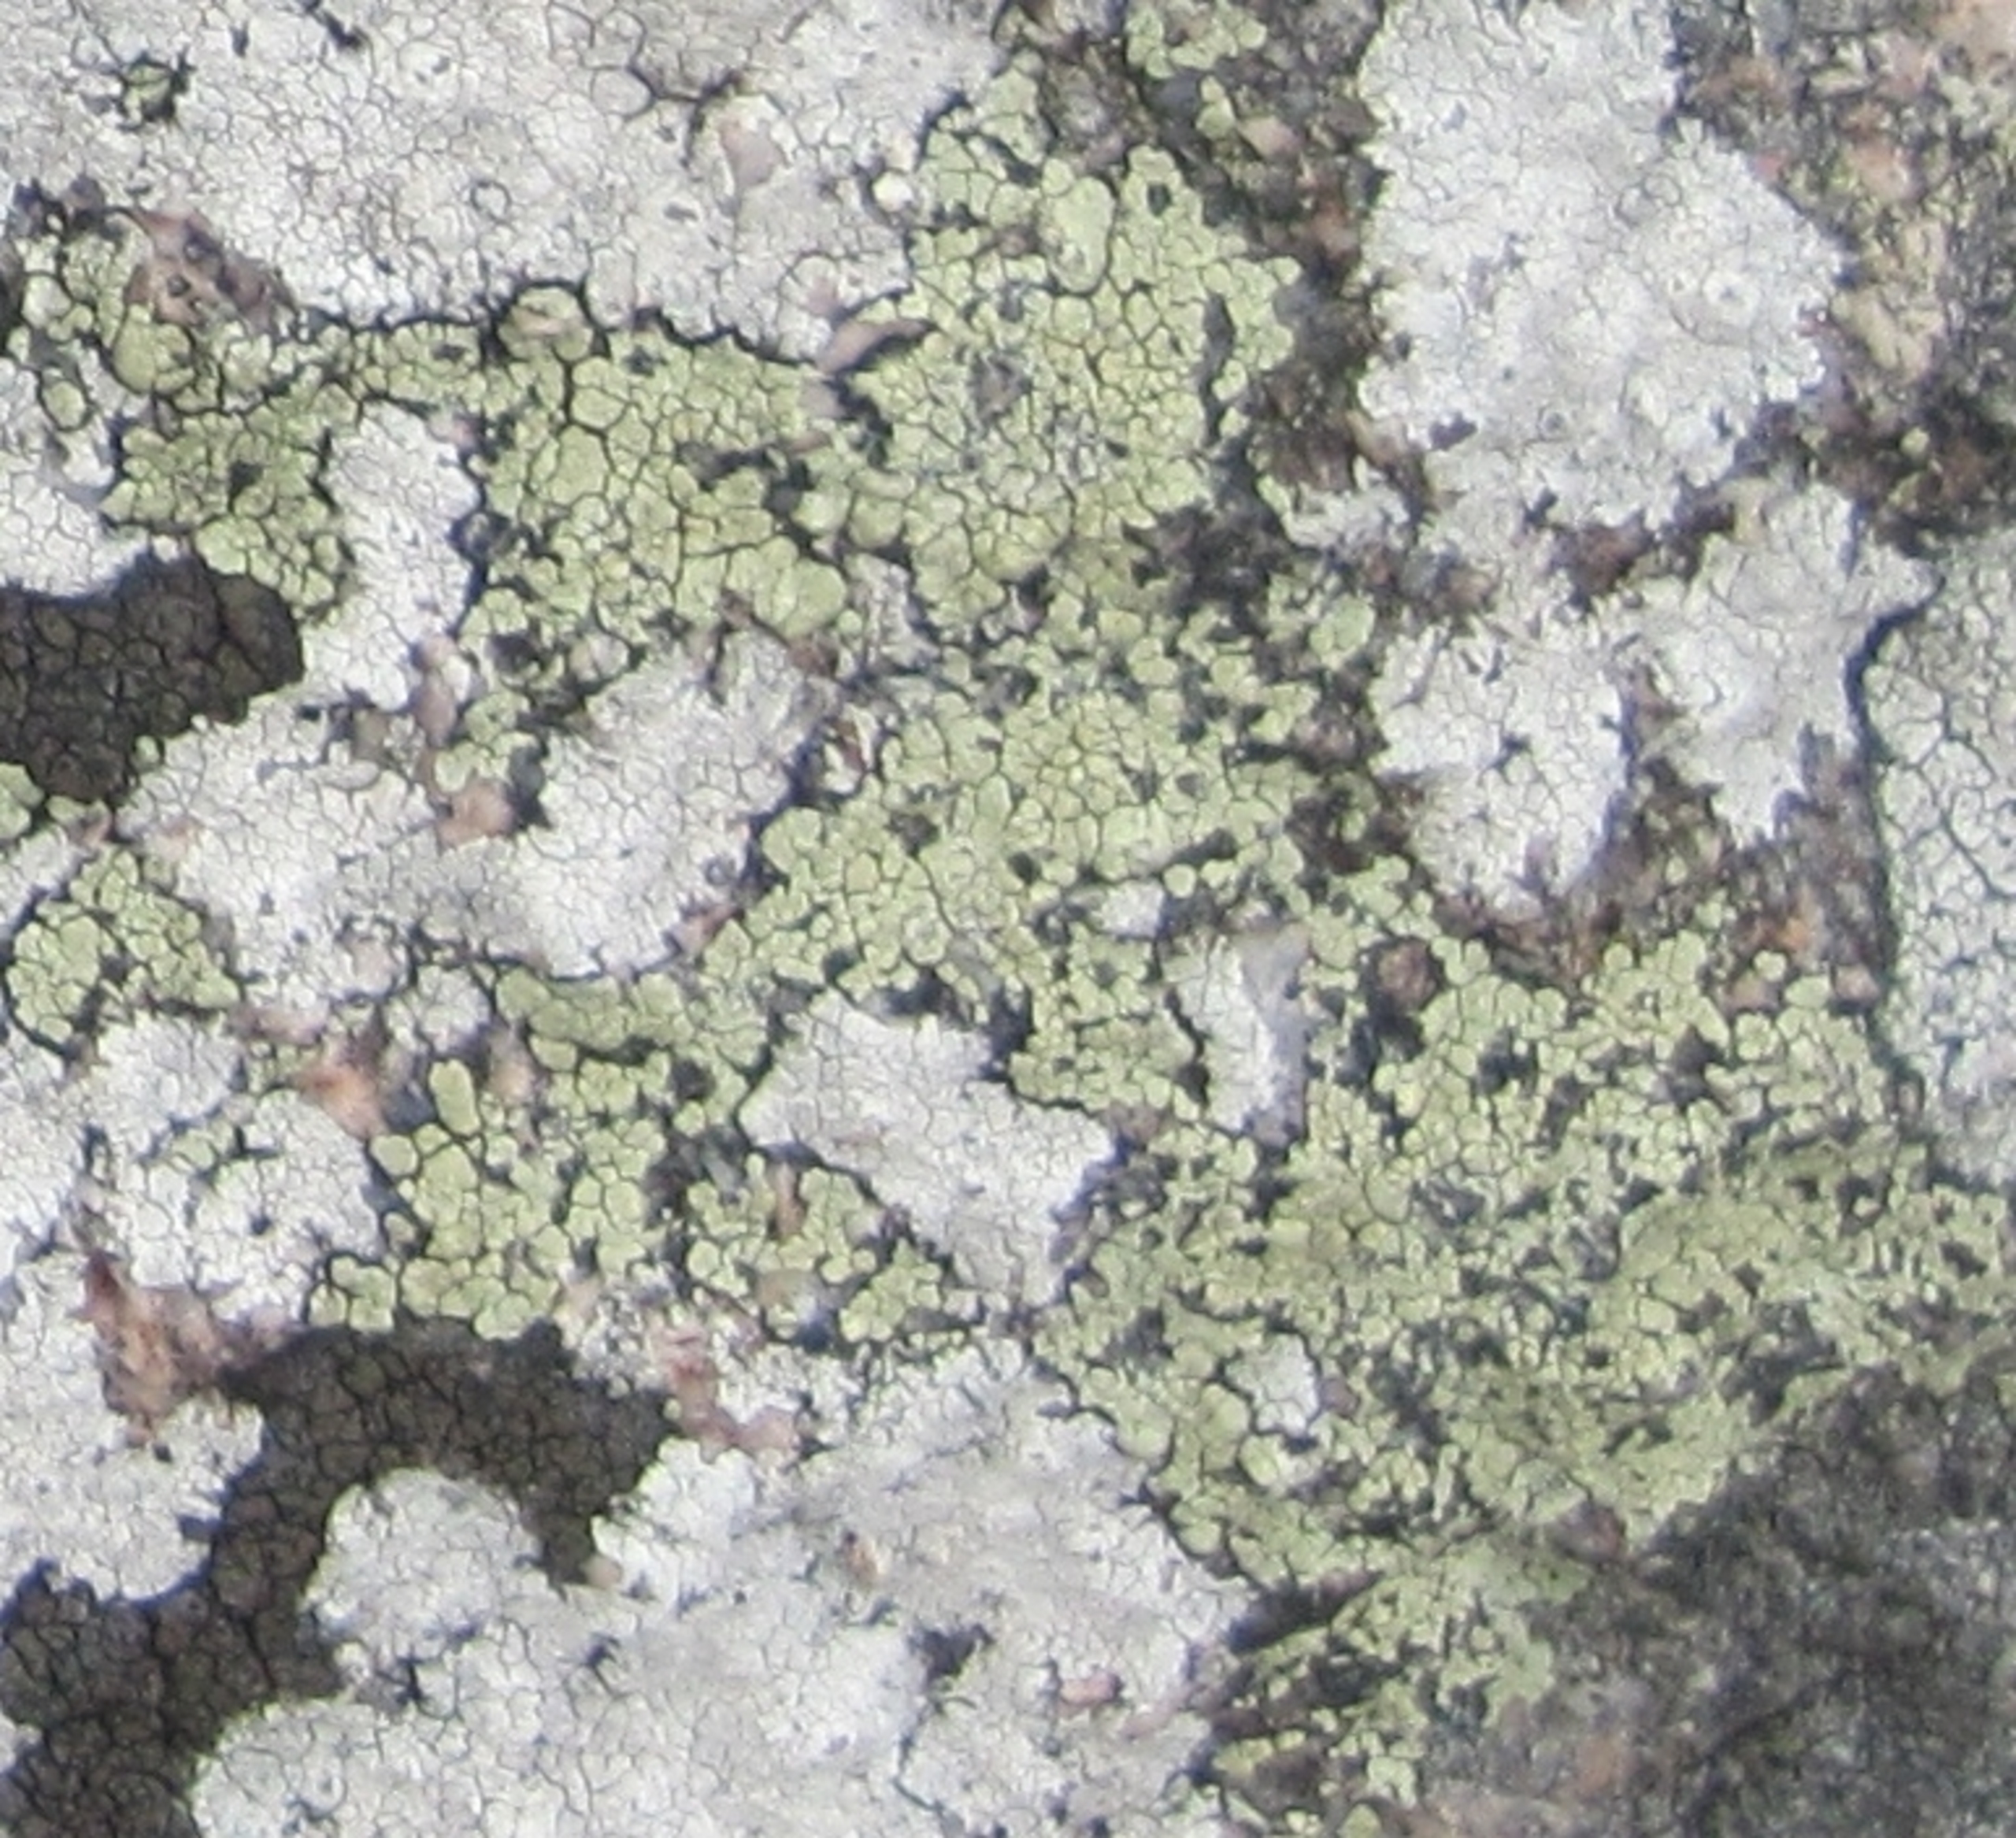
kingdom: Fungi
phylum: Ascomycota
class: Lecanoromycetes
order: Rhizocarpales
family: Rhizocarpaceae
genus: Rhizocarpon
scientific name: Rhizocarpon geographicum
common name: Gulgrøn landkortlav
